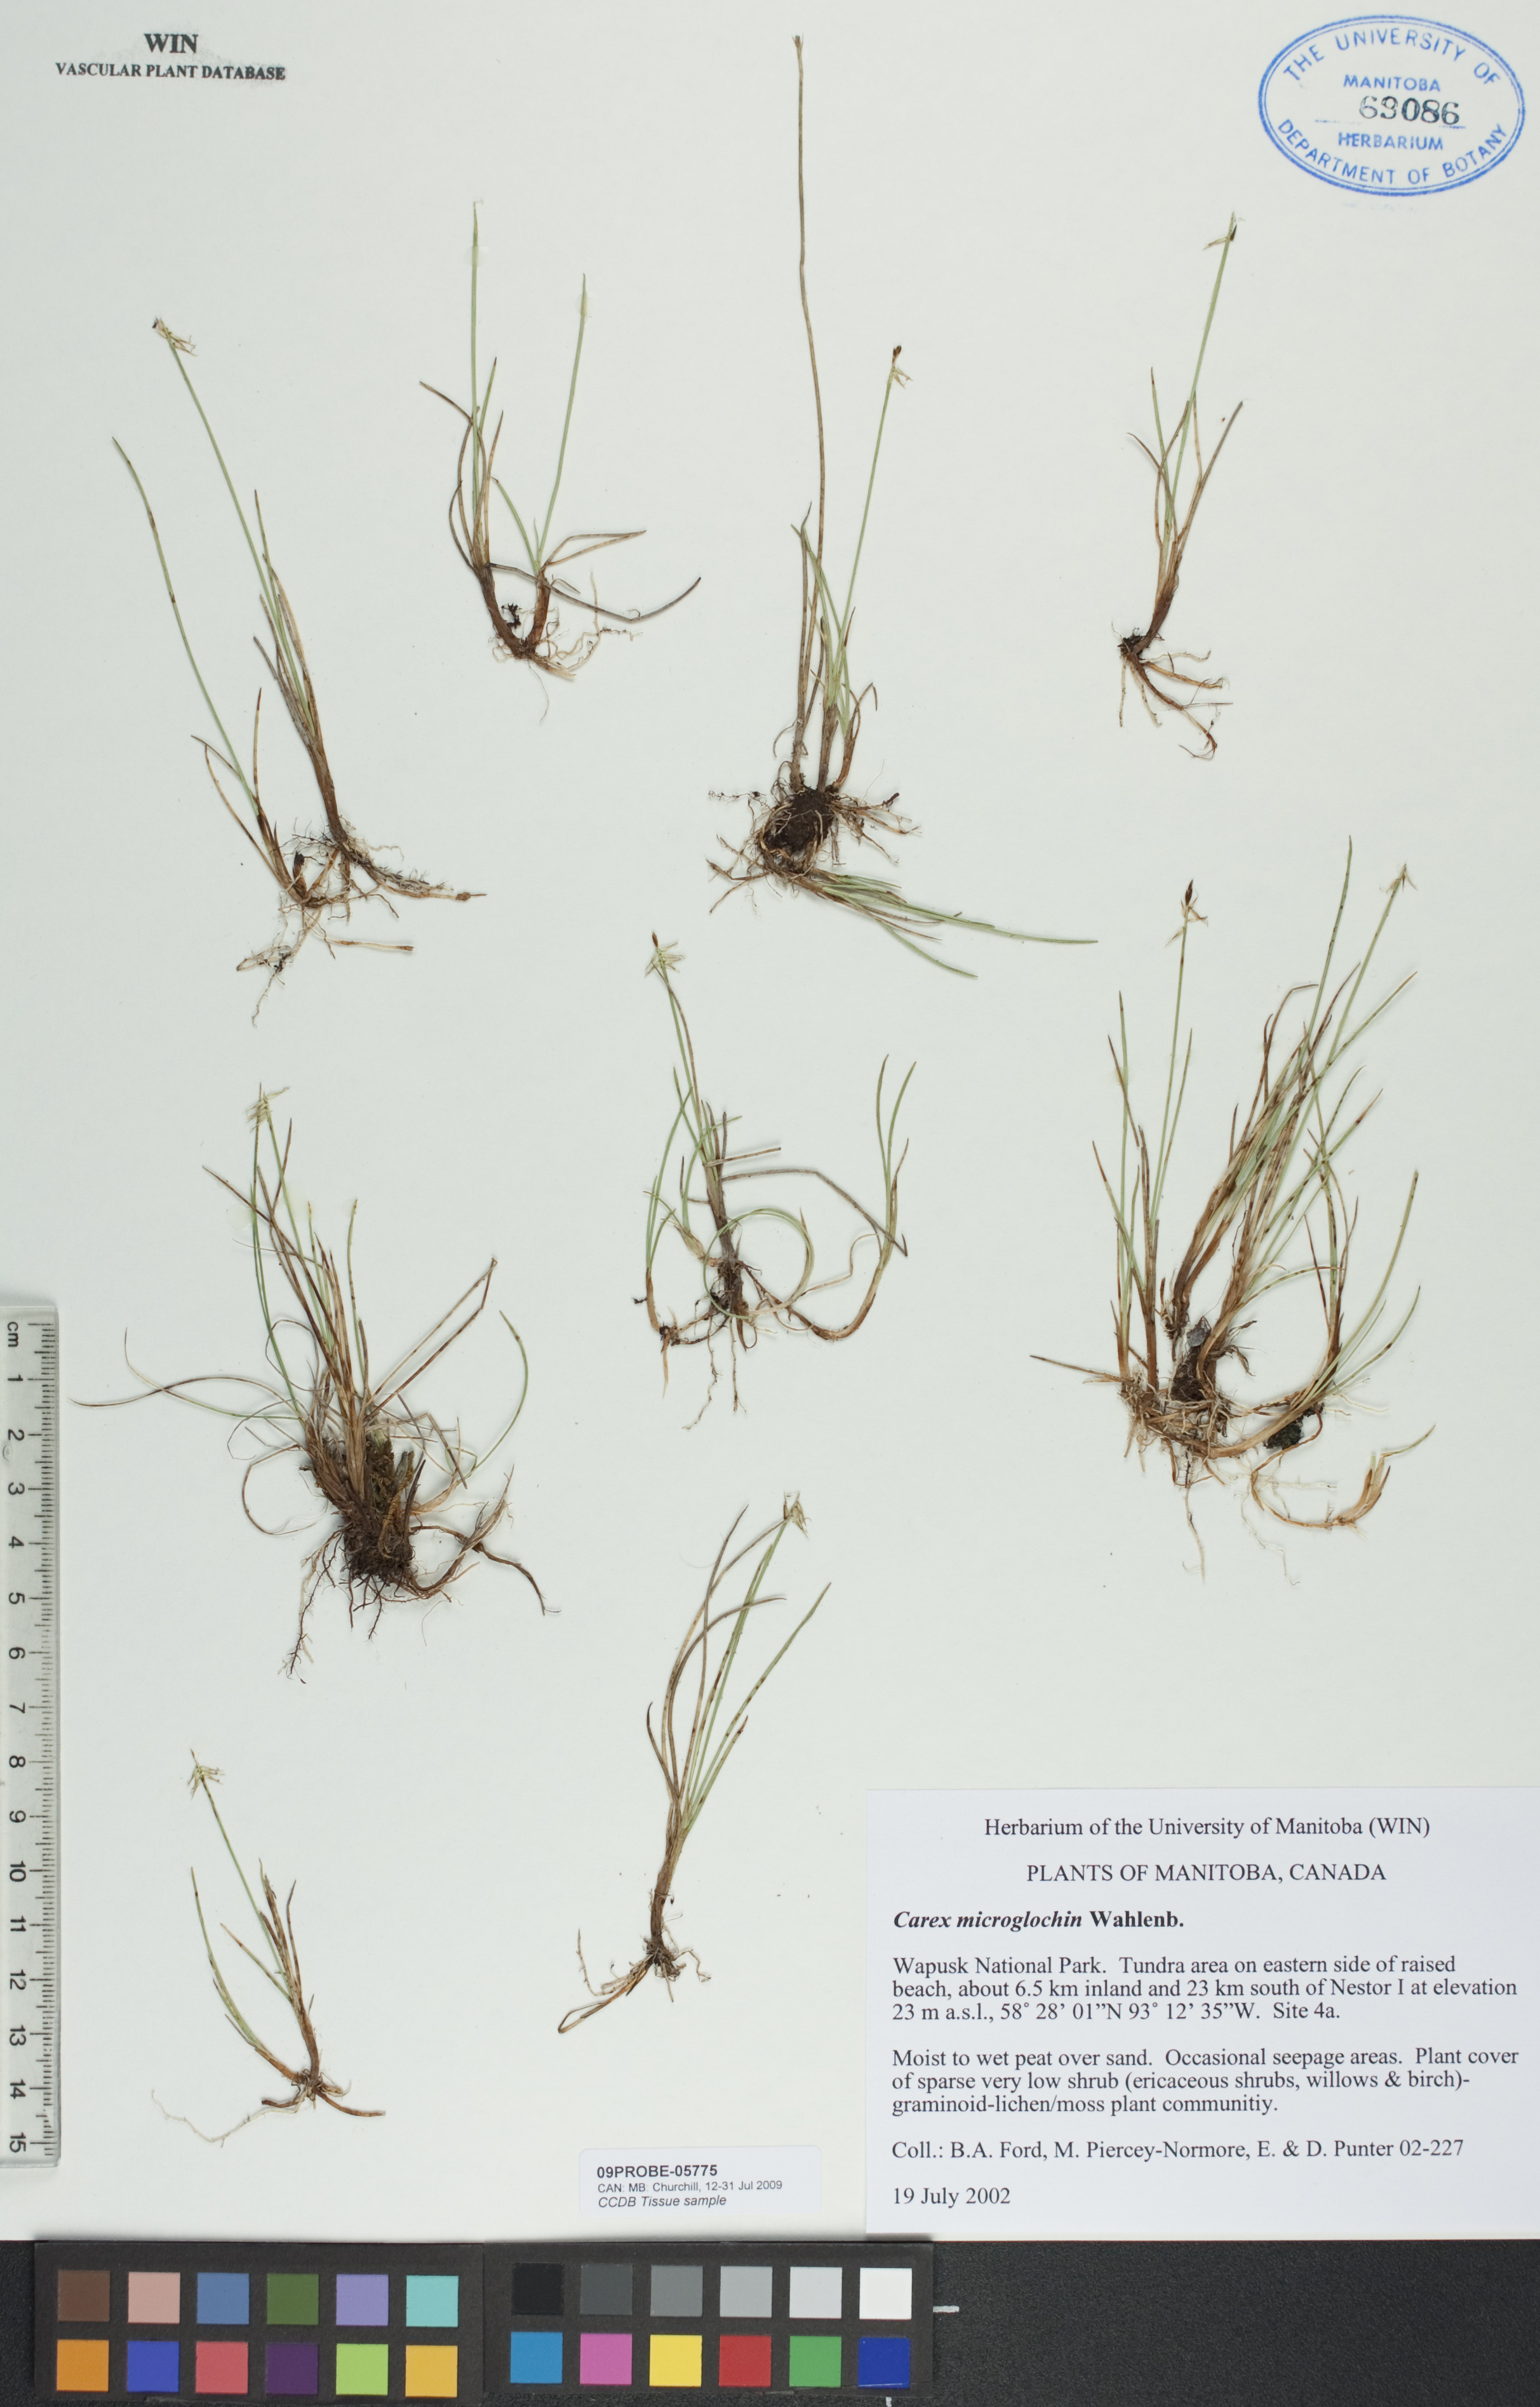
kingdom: Plantae
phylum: Tracheophyta
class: Liliopsida
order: Poales
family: Cyperaceae
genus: Carex
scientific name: Carex microglochin
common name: Bristle sedge
